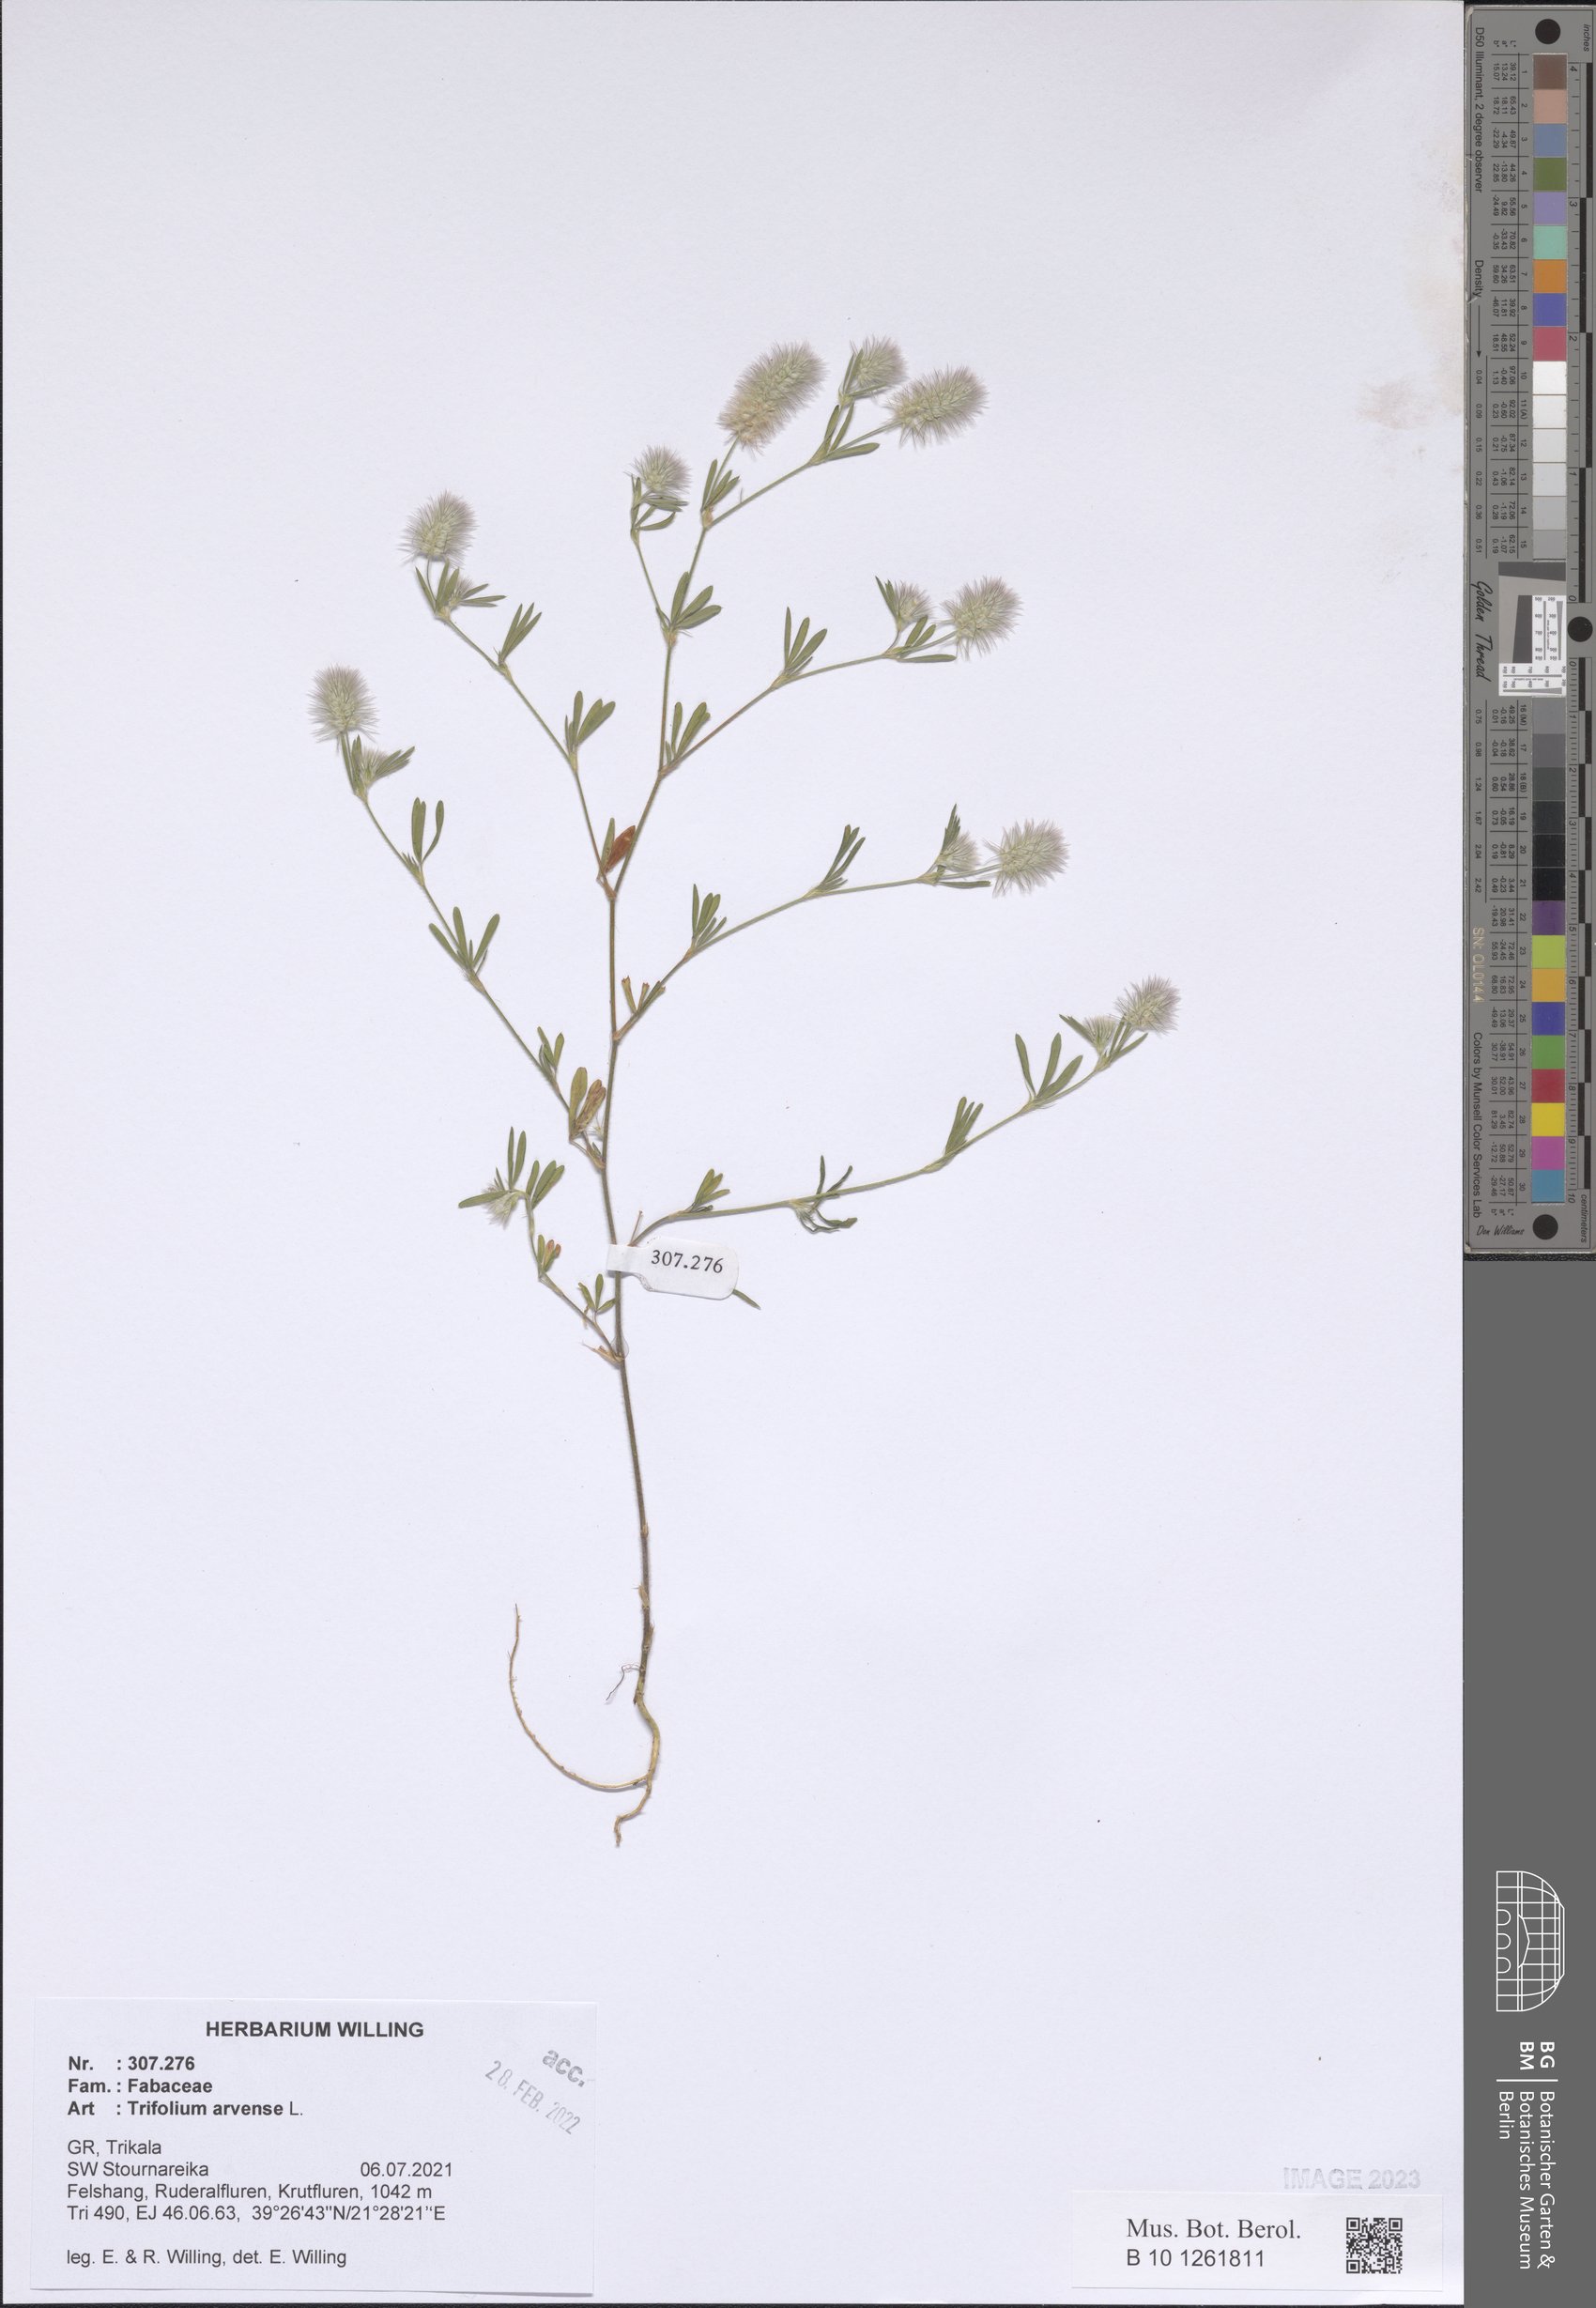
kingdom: Plantae
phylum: Tracheophyta
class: Magnoliopsida
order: Fabales
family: Fabaceae
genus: Trifolium
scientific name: Trifolium arvense
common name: Hare's-foot clover
